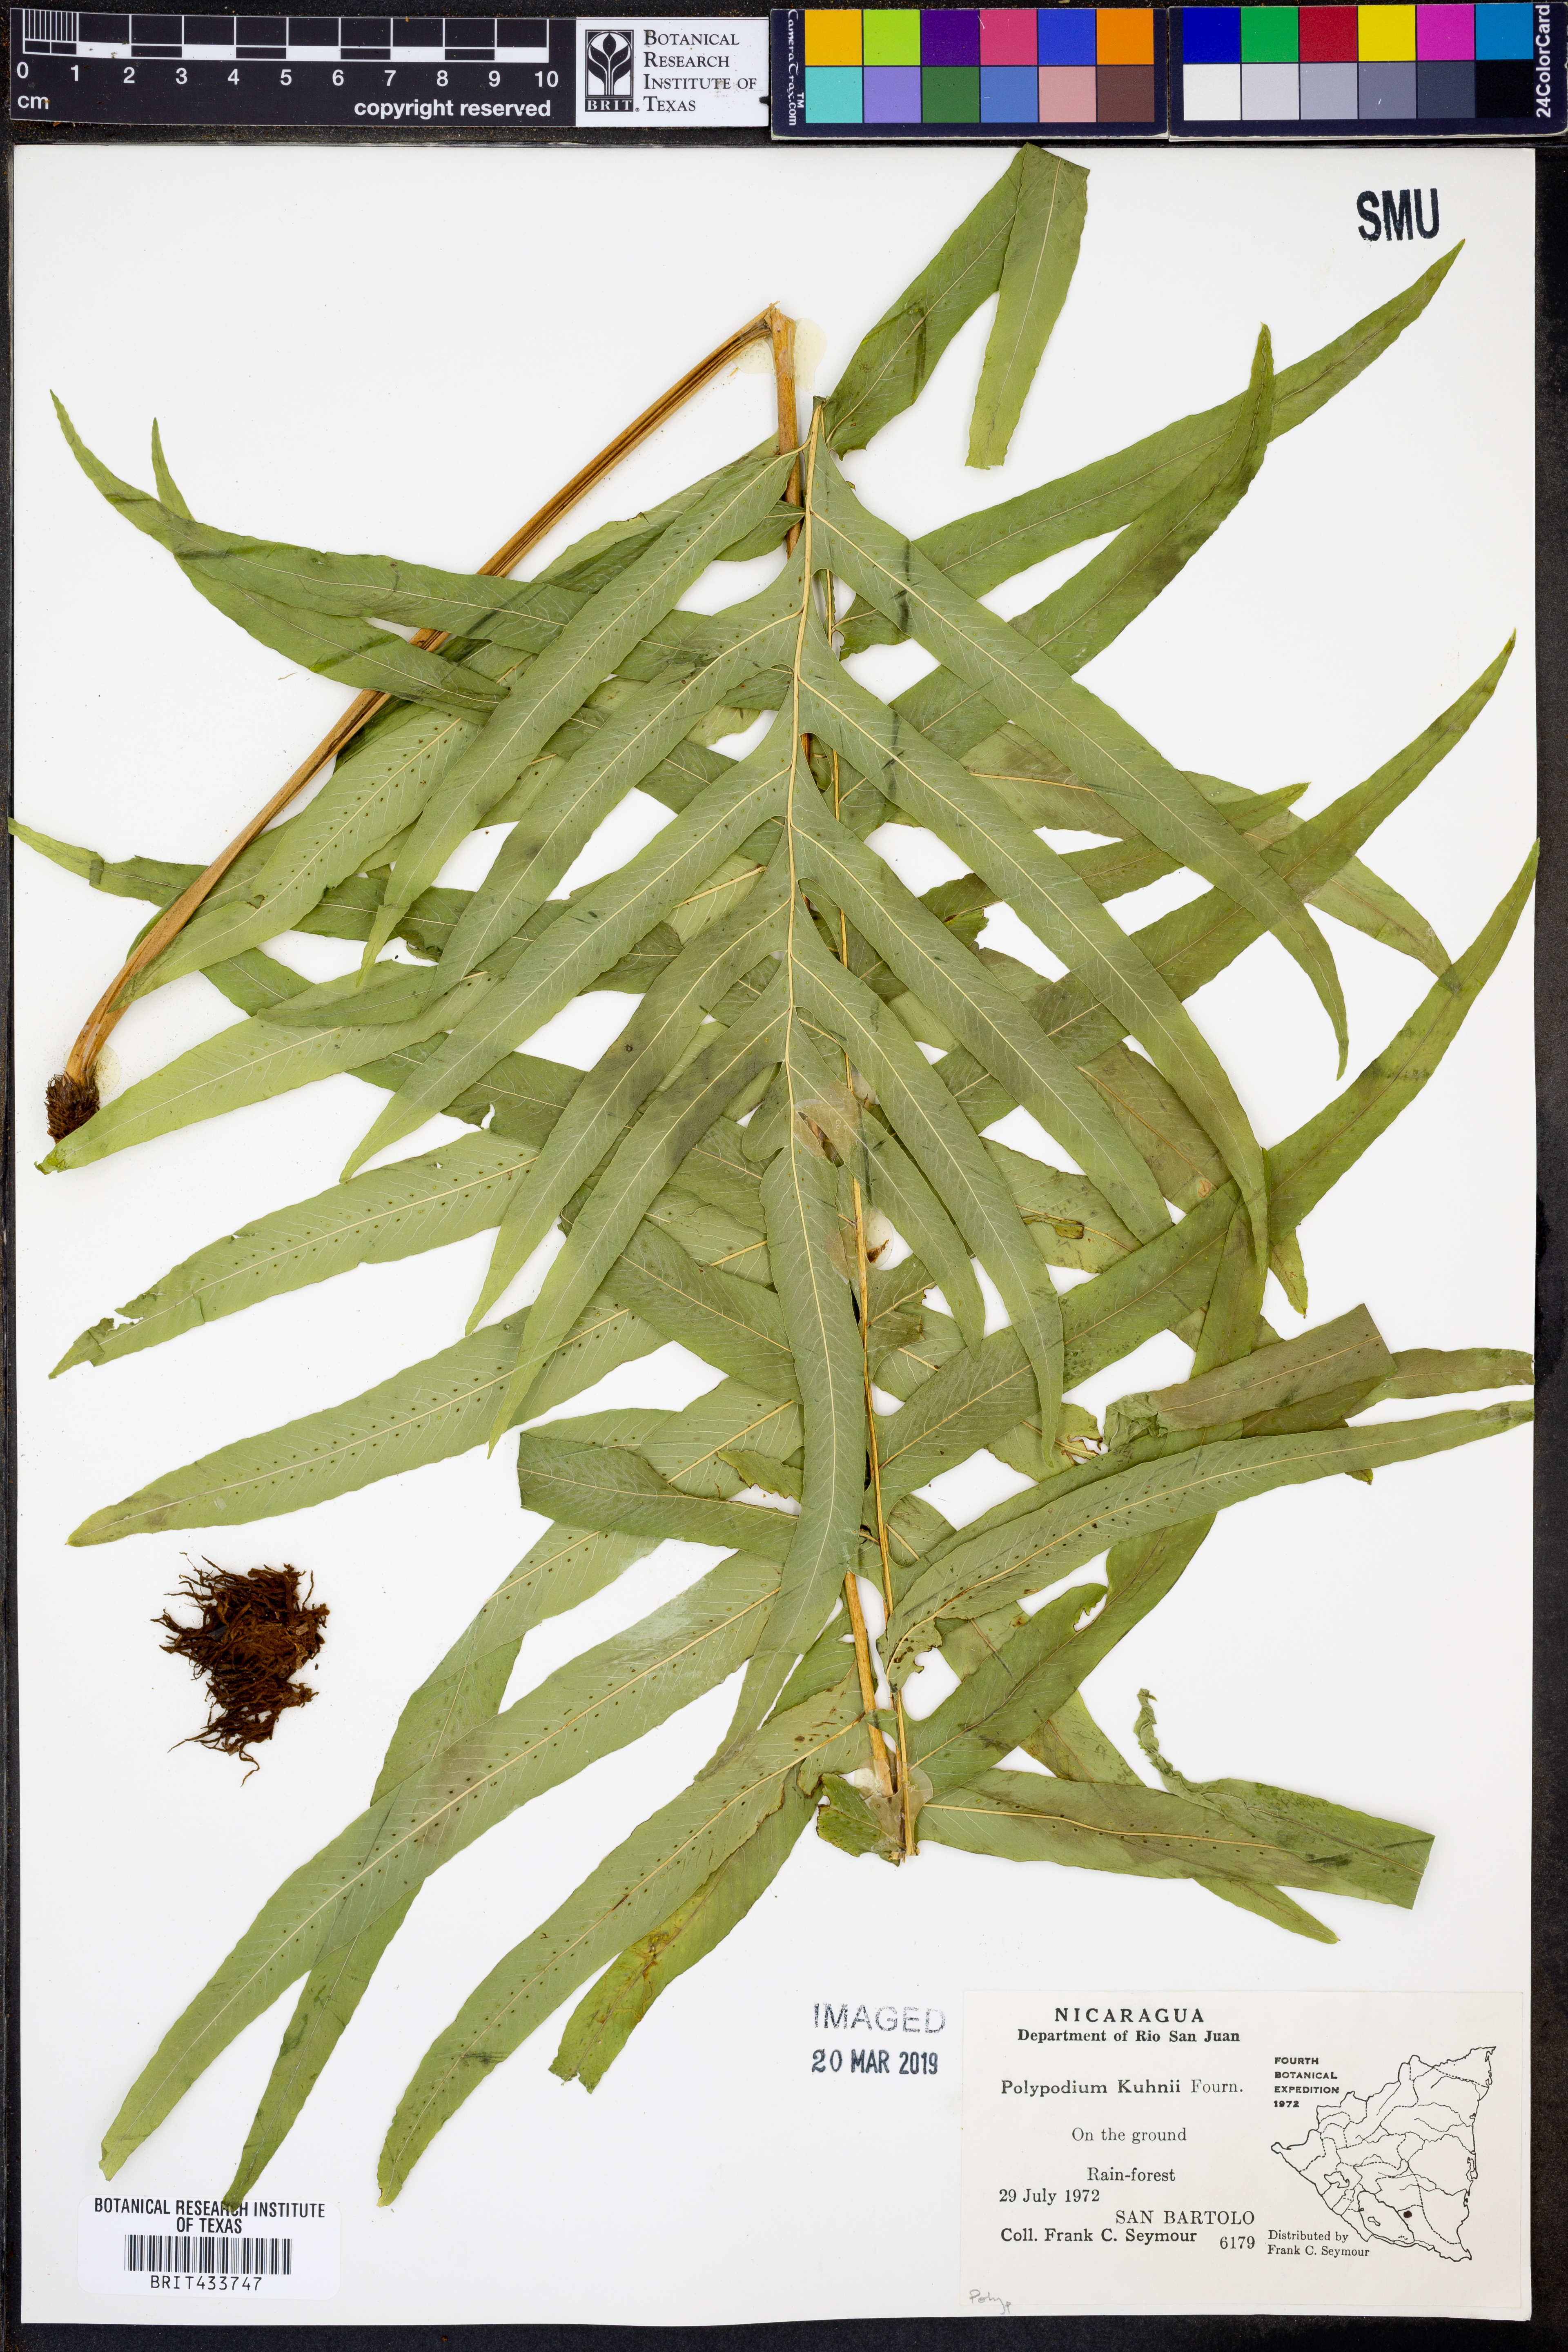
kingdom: Plantae
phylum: Tracheophyta
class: Polypodiopsida
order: Polypodiales
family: Polypodiaceae
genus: Serpocaulon
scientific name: Serpocaulon attenuatum
